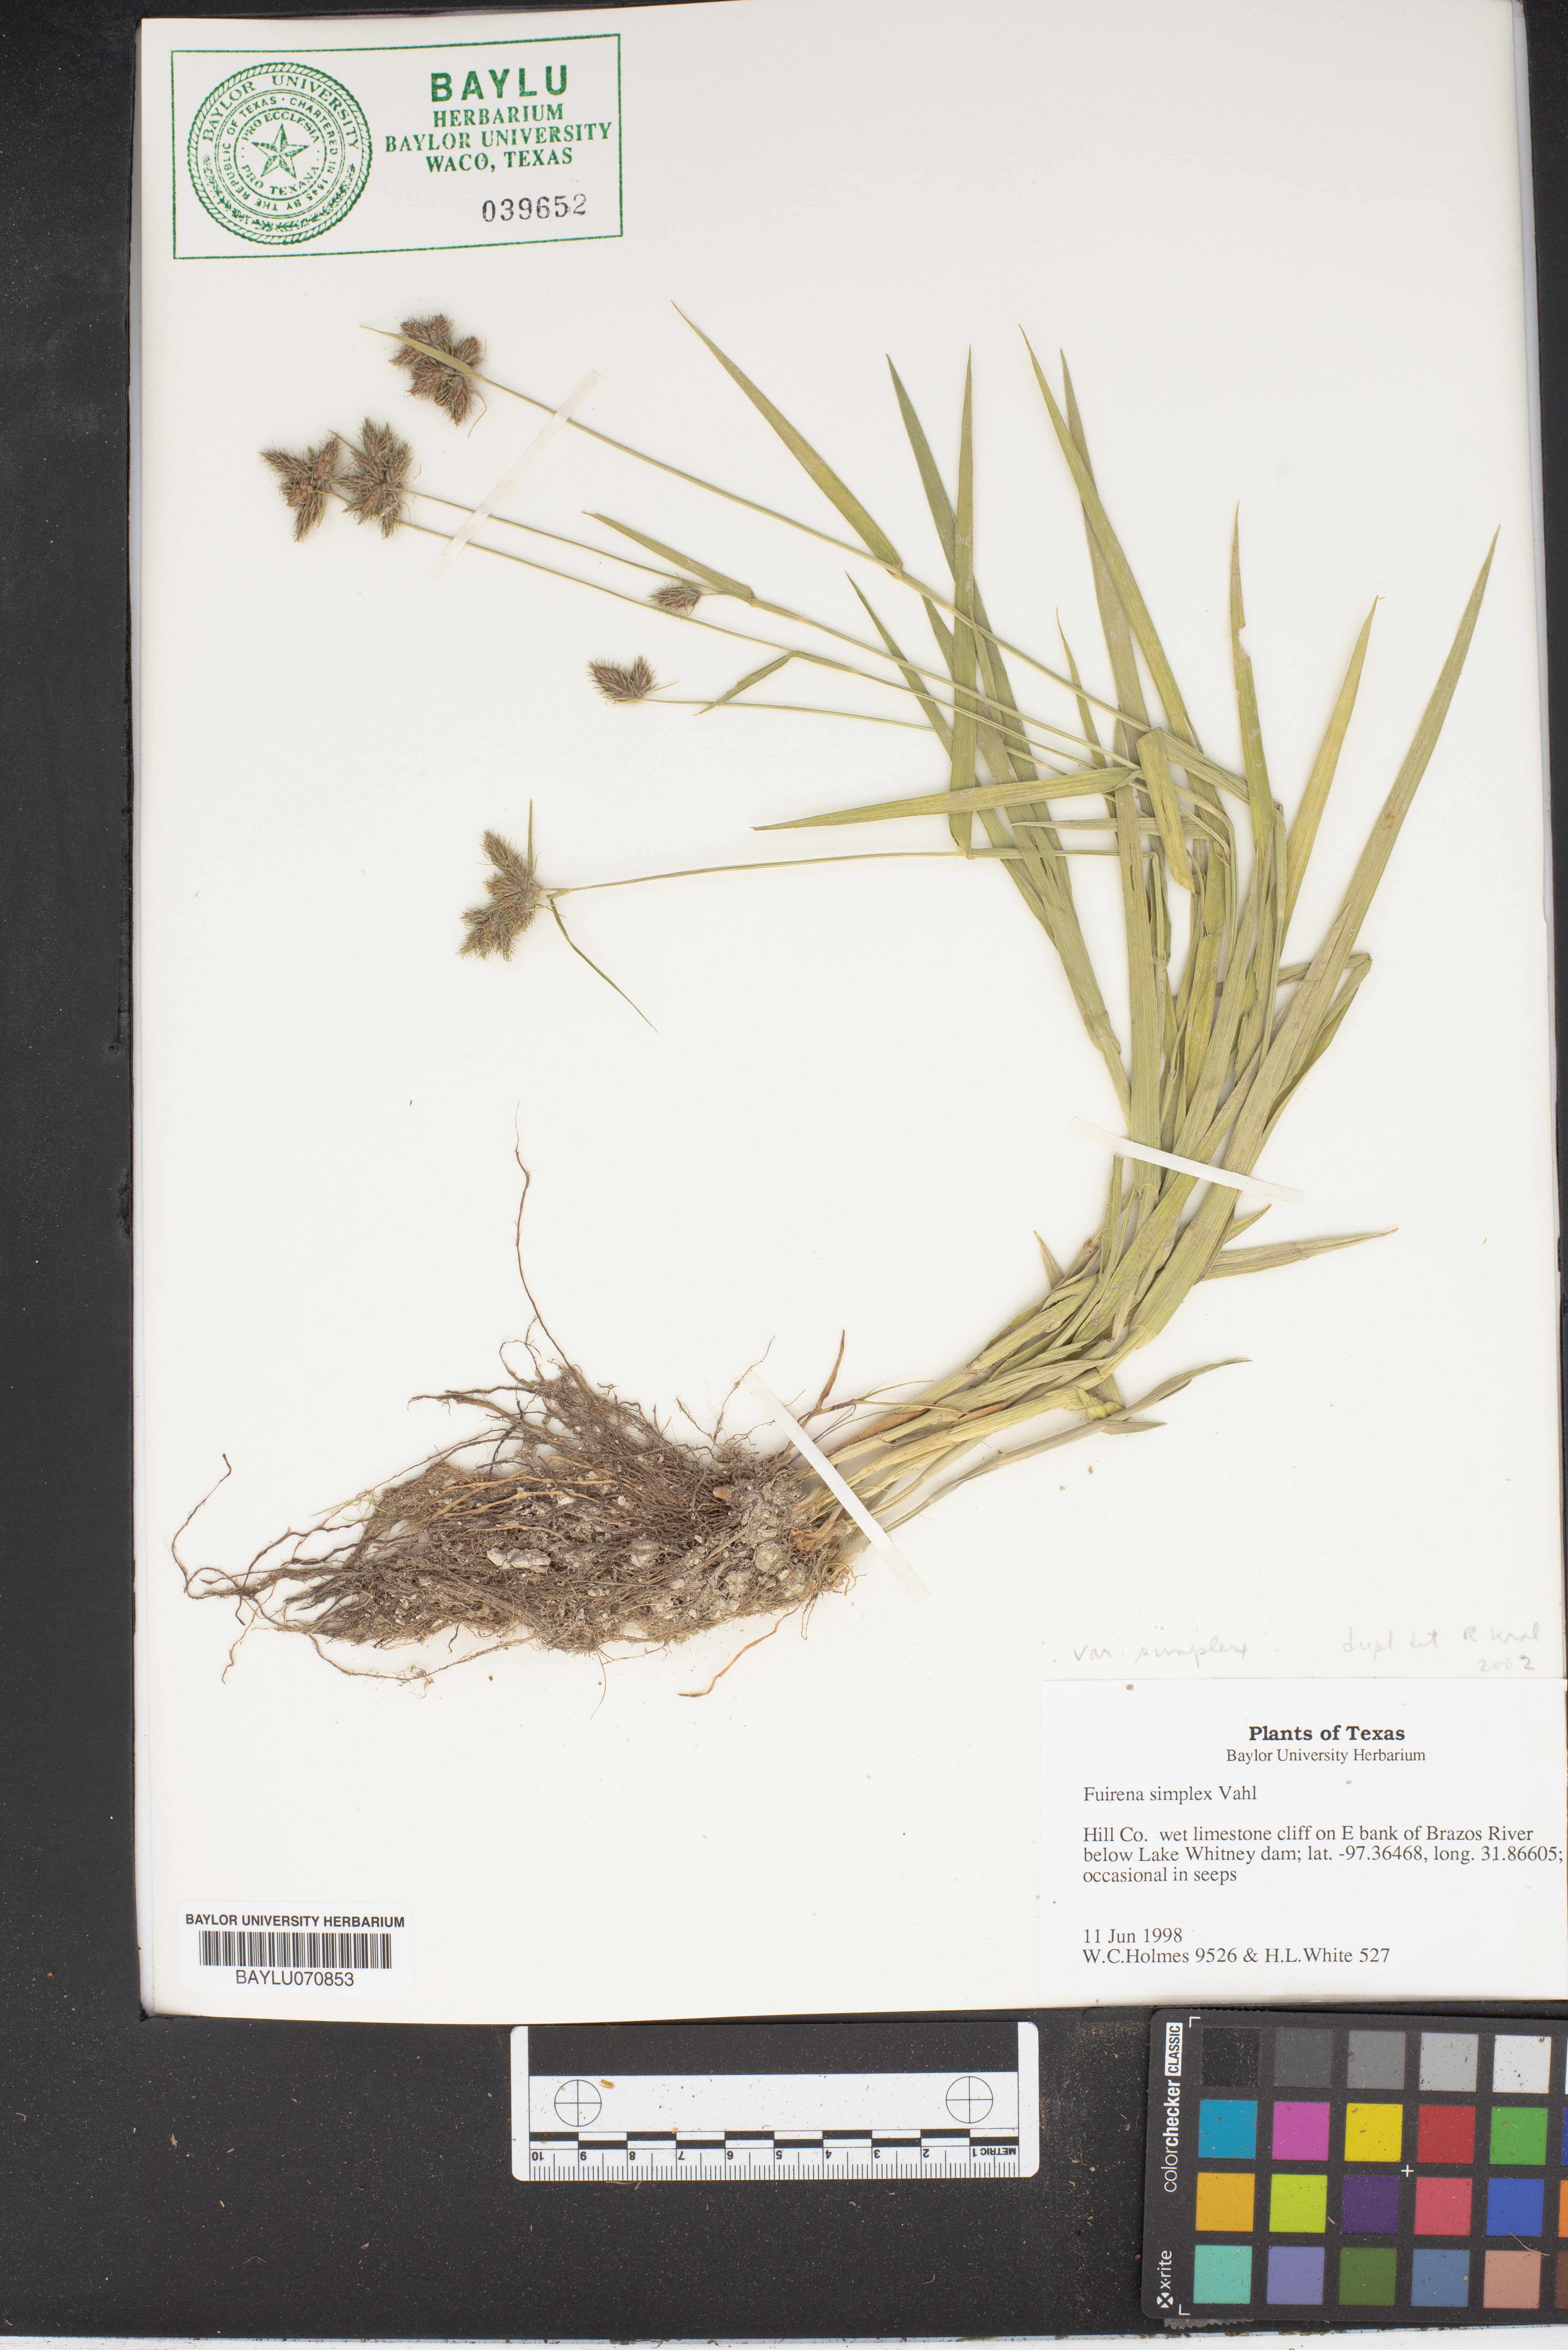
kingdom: Plantae
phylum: Tracheophyta
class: Liliopsida
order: Poales
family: Cyperaceae
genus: Fuirena
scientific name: Fuirena simplex
